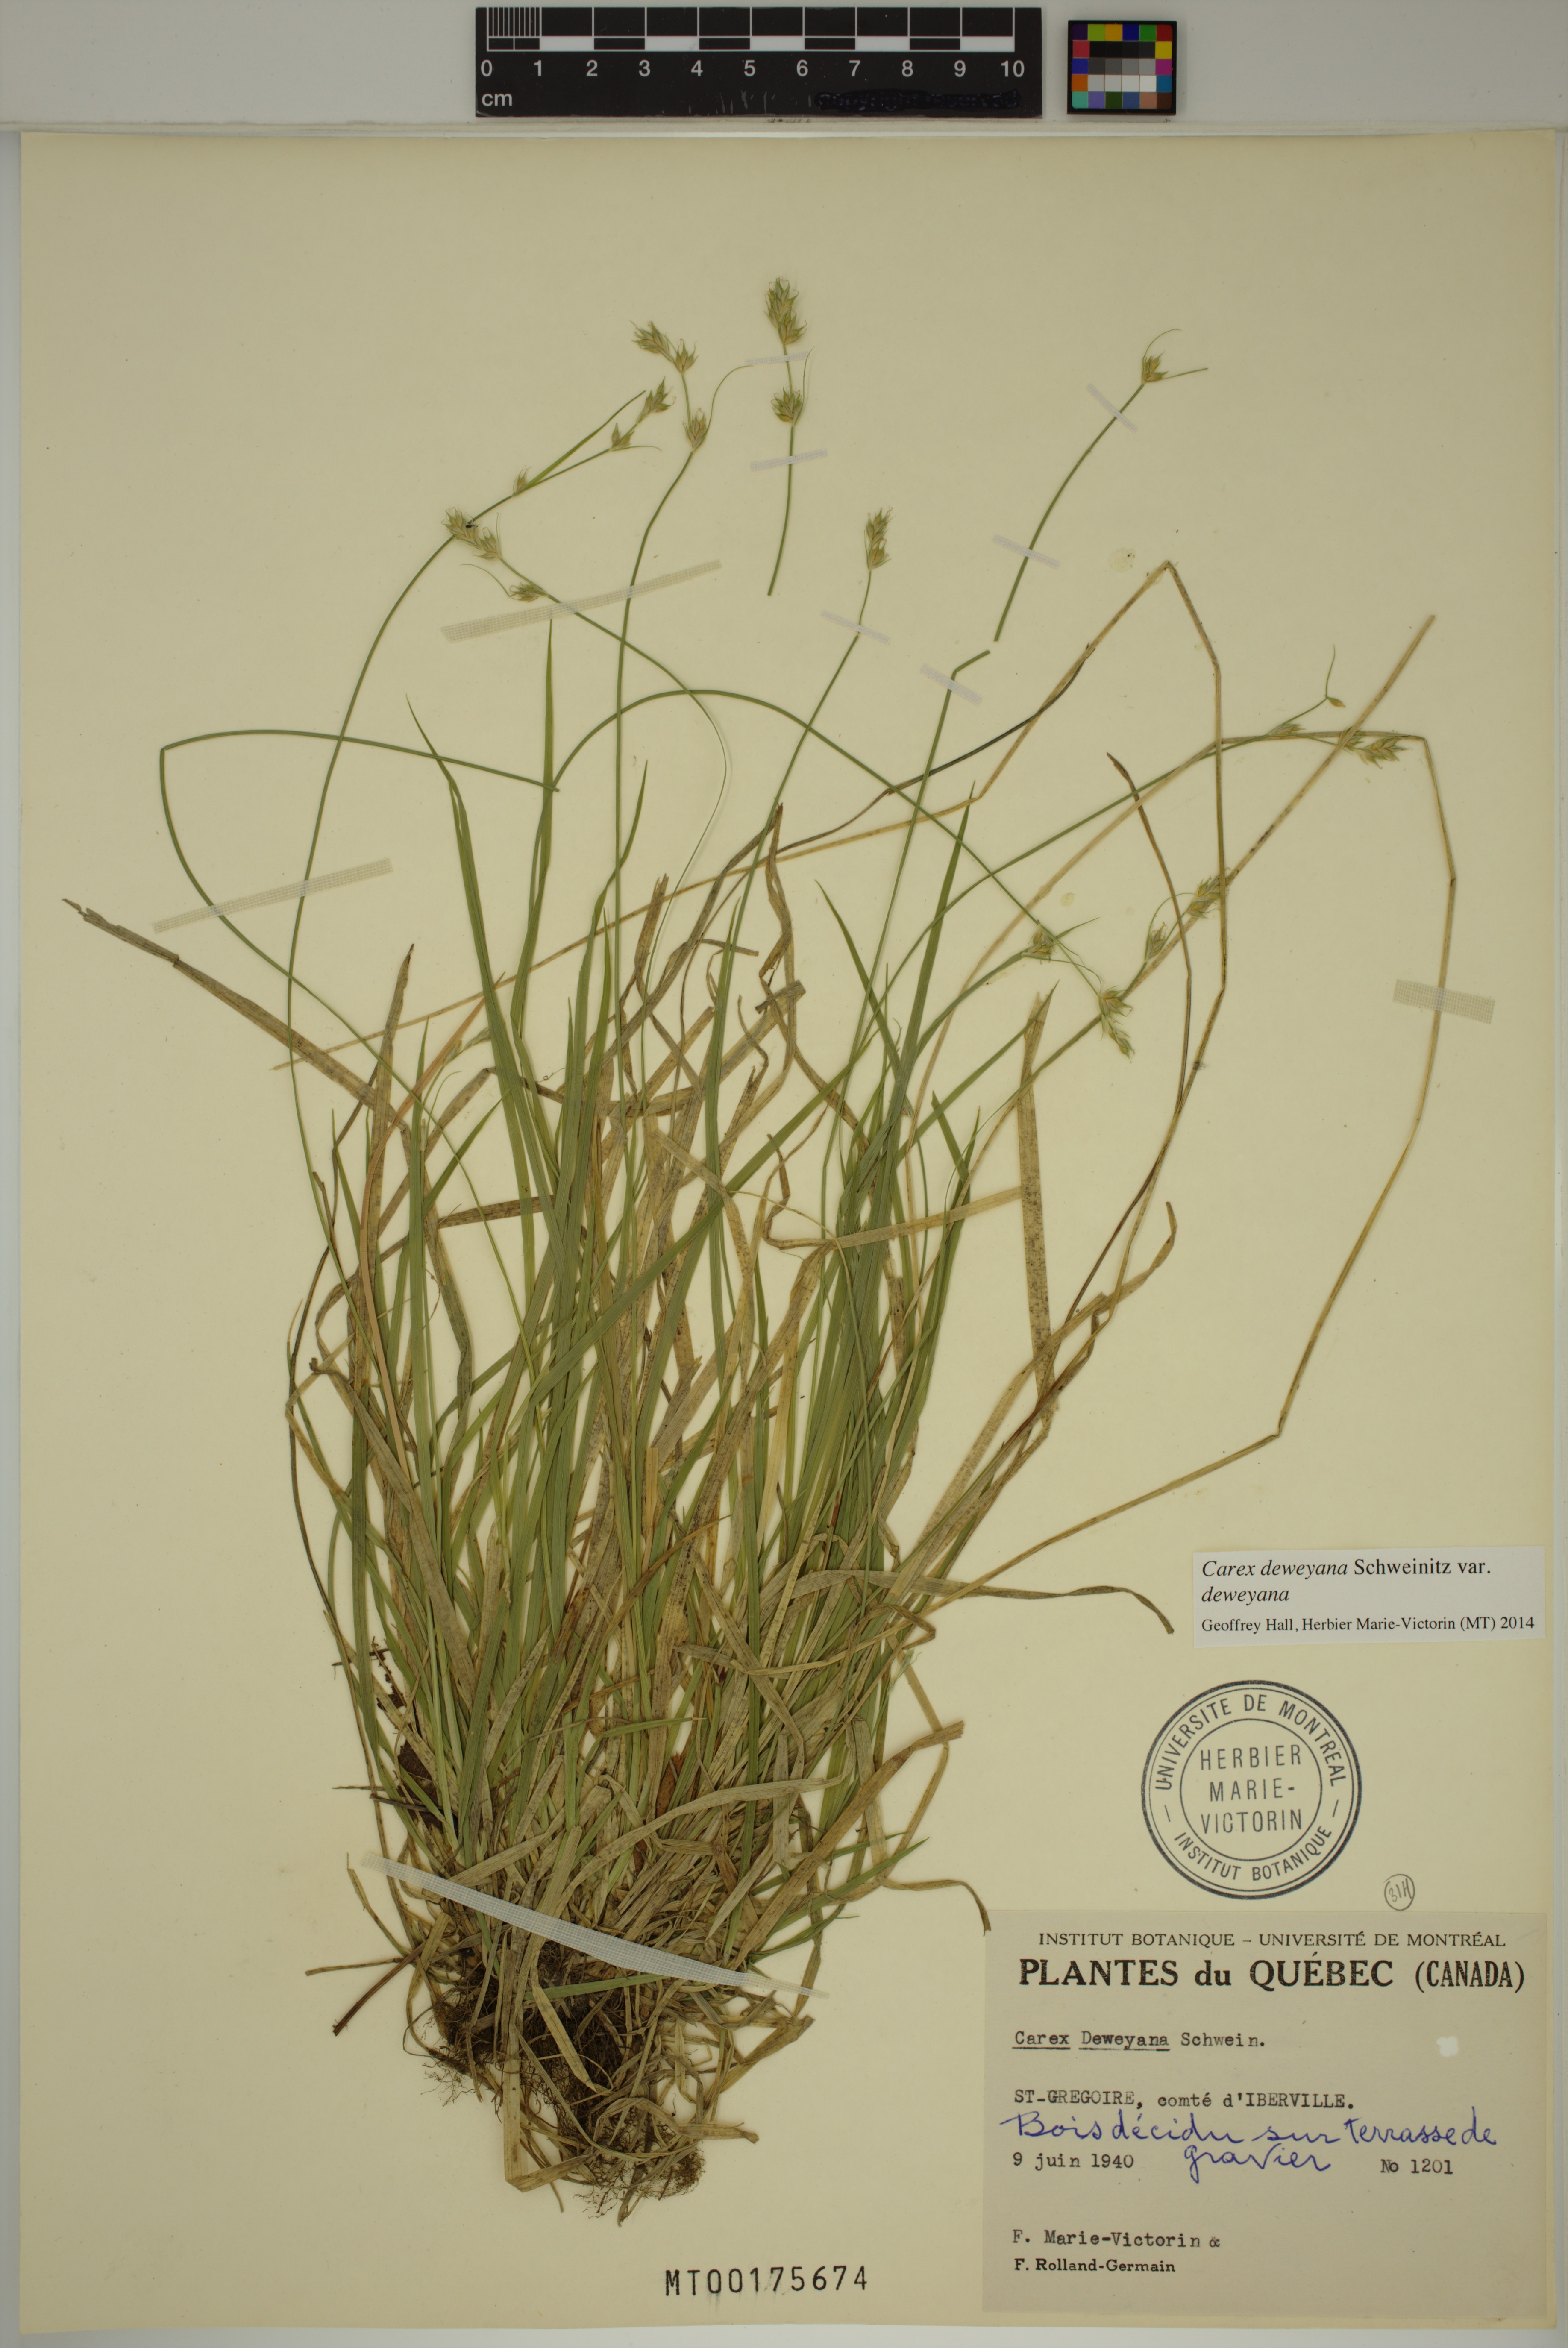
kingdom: Plantae
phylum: Tracheophyta
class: Liliopsida
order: Poales
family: Cyperaceae
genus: Carex
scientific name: Carex deweyana
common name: Dewey's sedge
